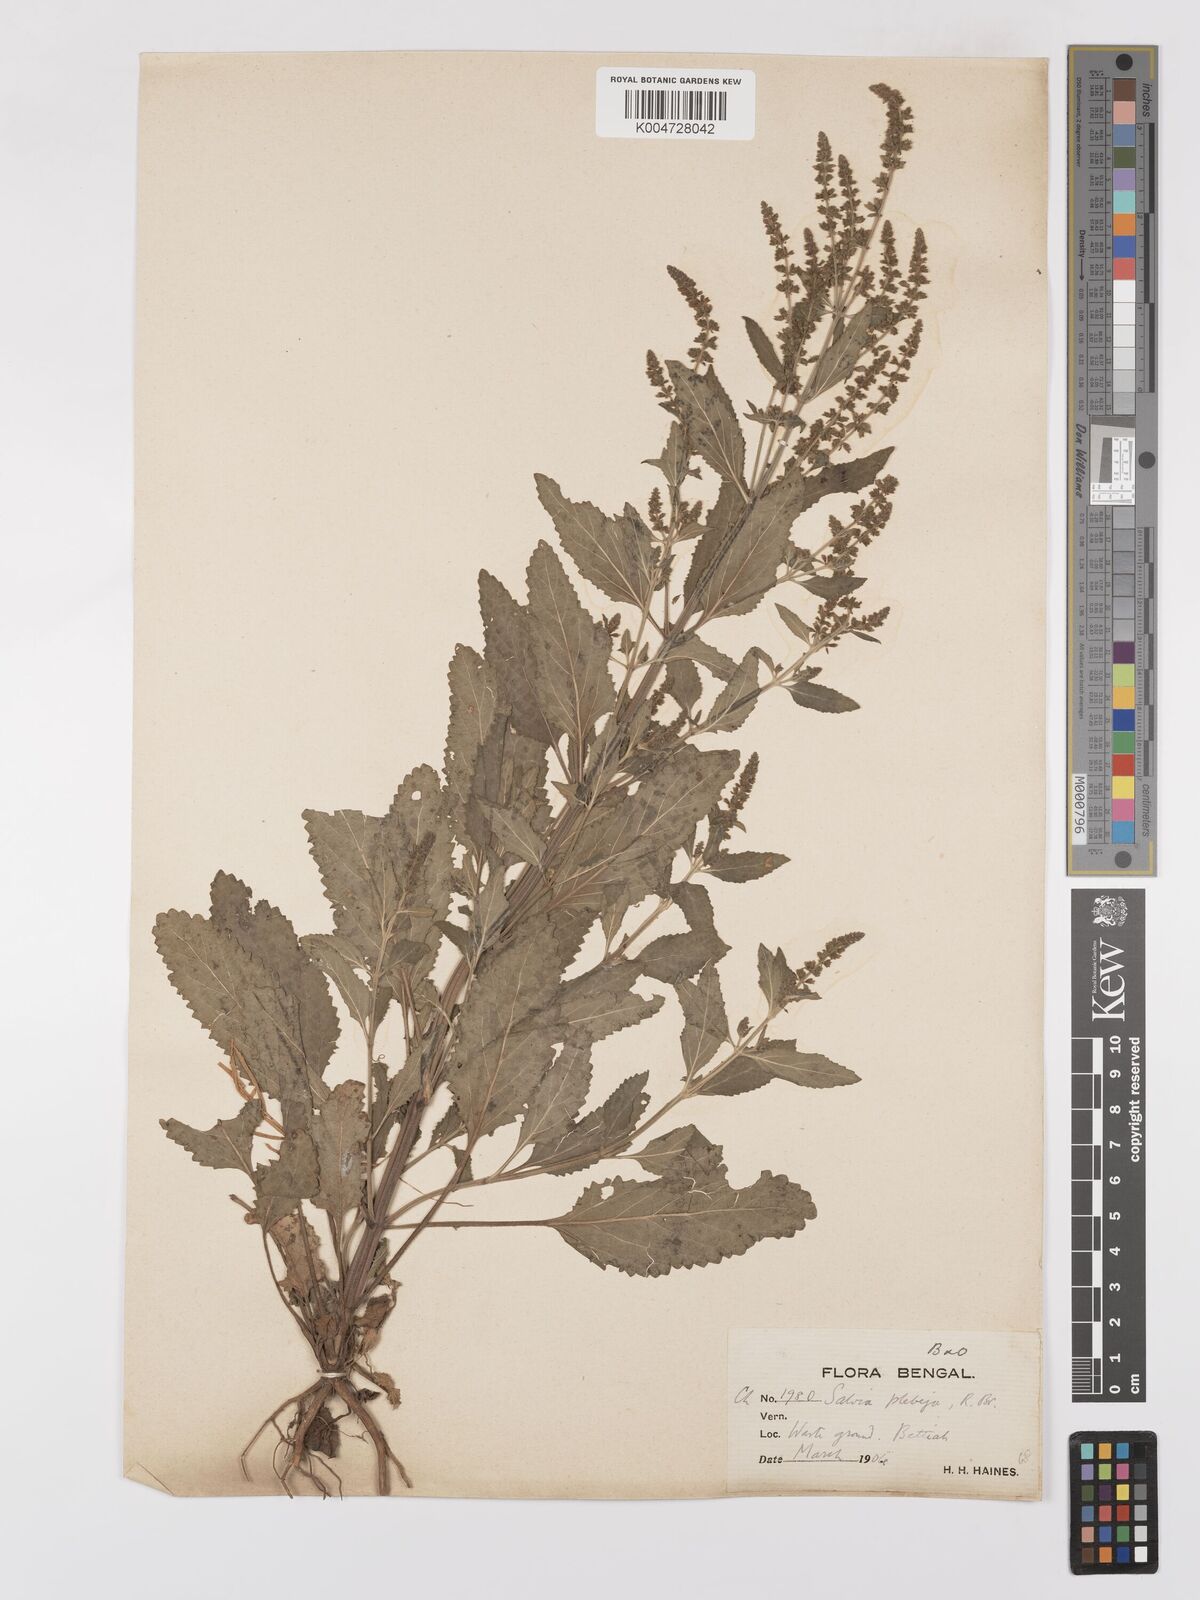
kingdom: Plantae
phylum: Tracheophyta
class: Magnoliopsida
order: Lamiales
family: Lamiaceae
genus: Salvia
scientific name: Salvia plebeia
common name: Australian sage
